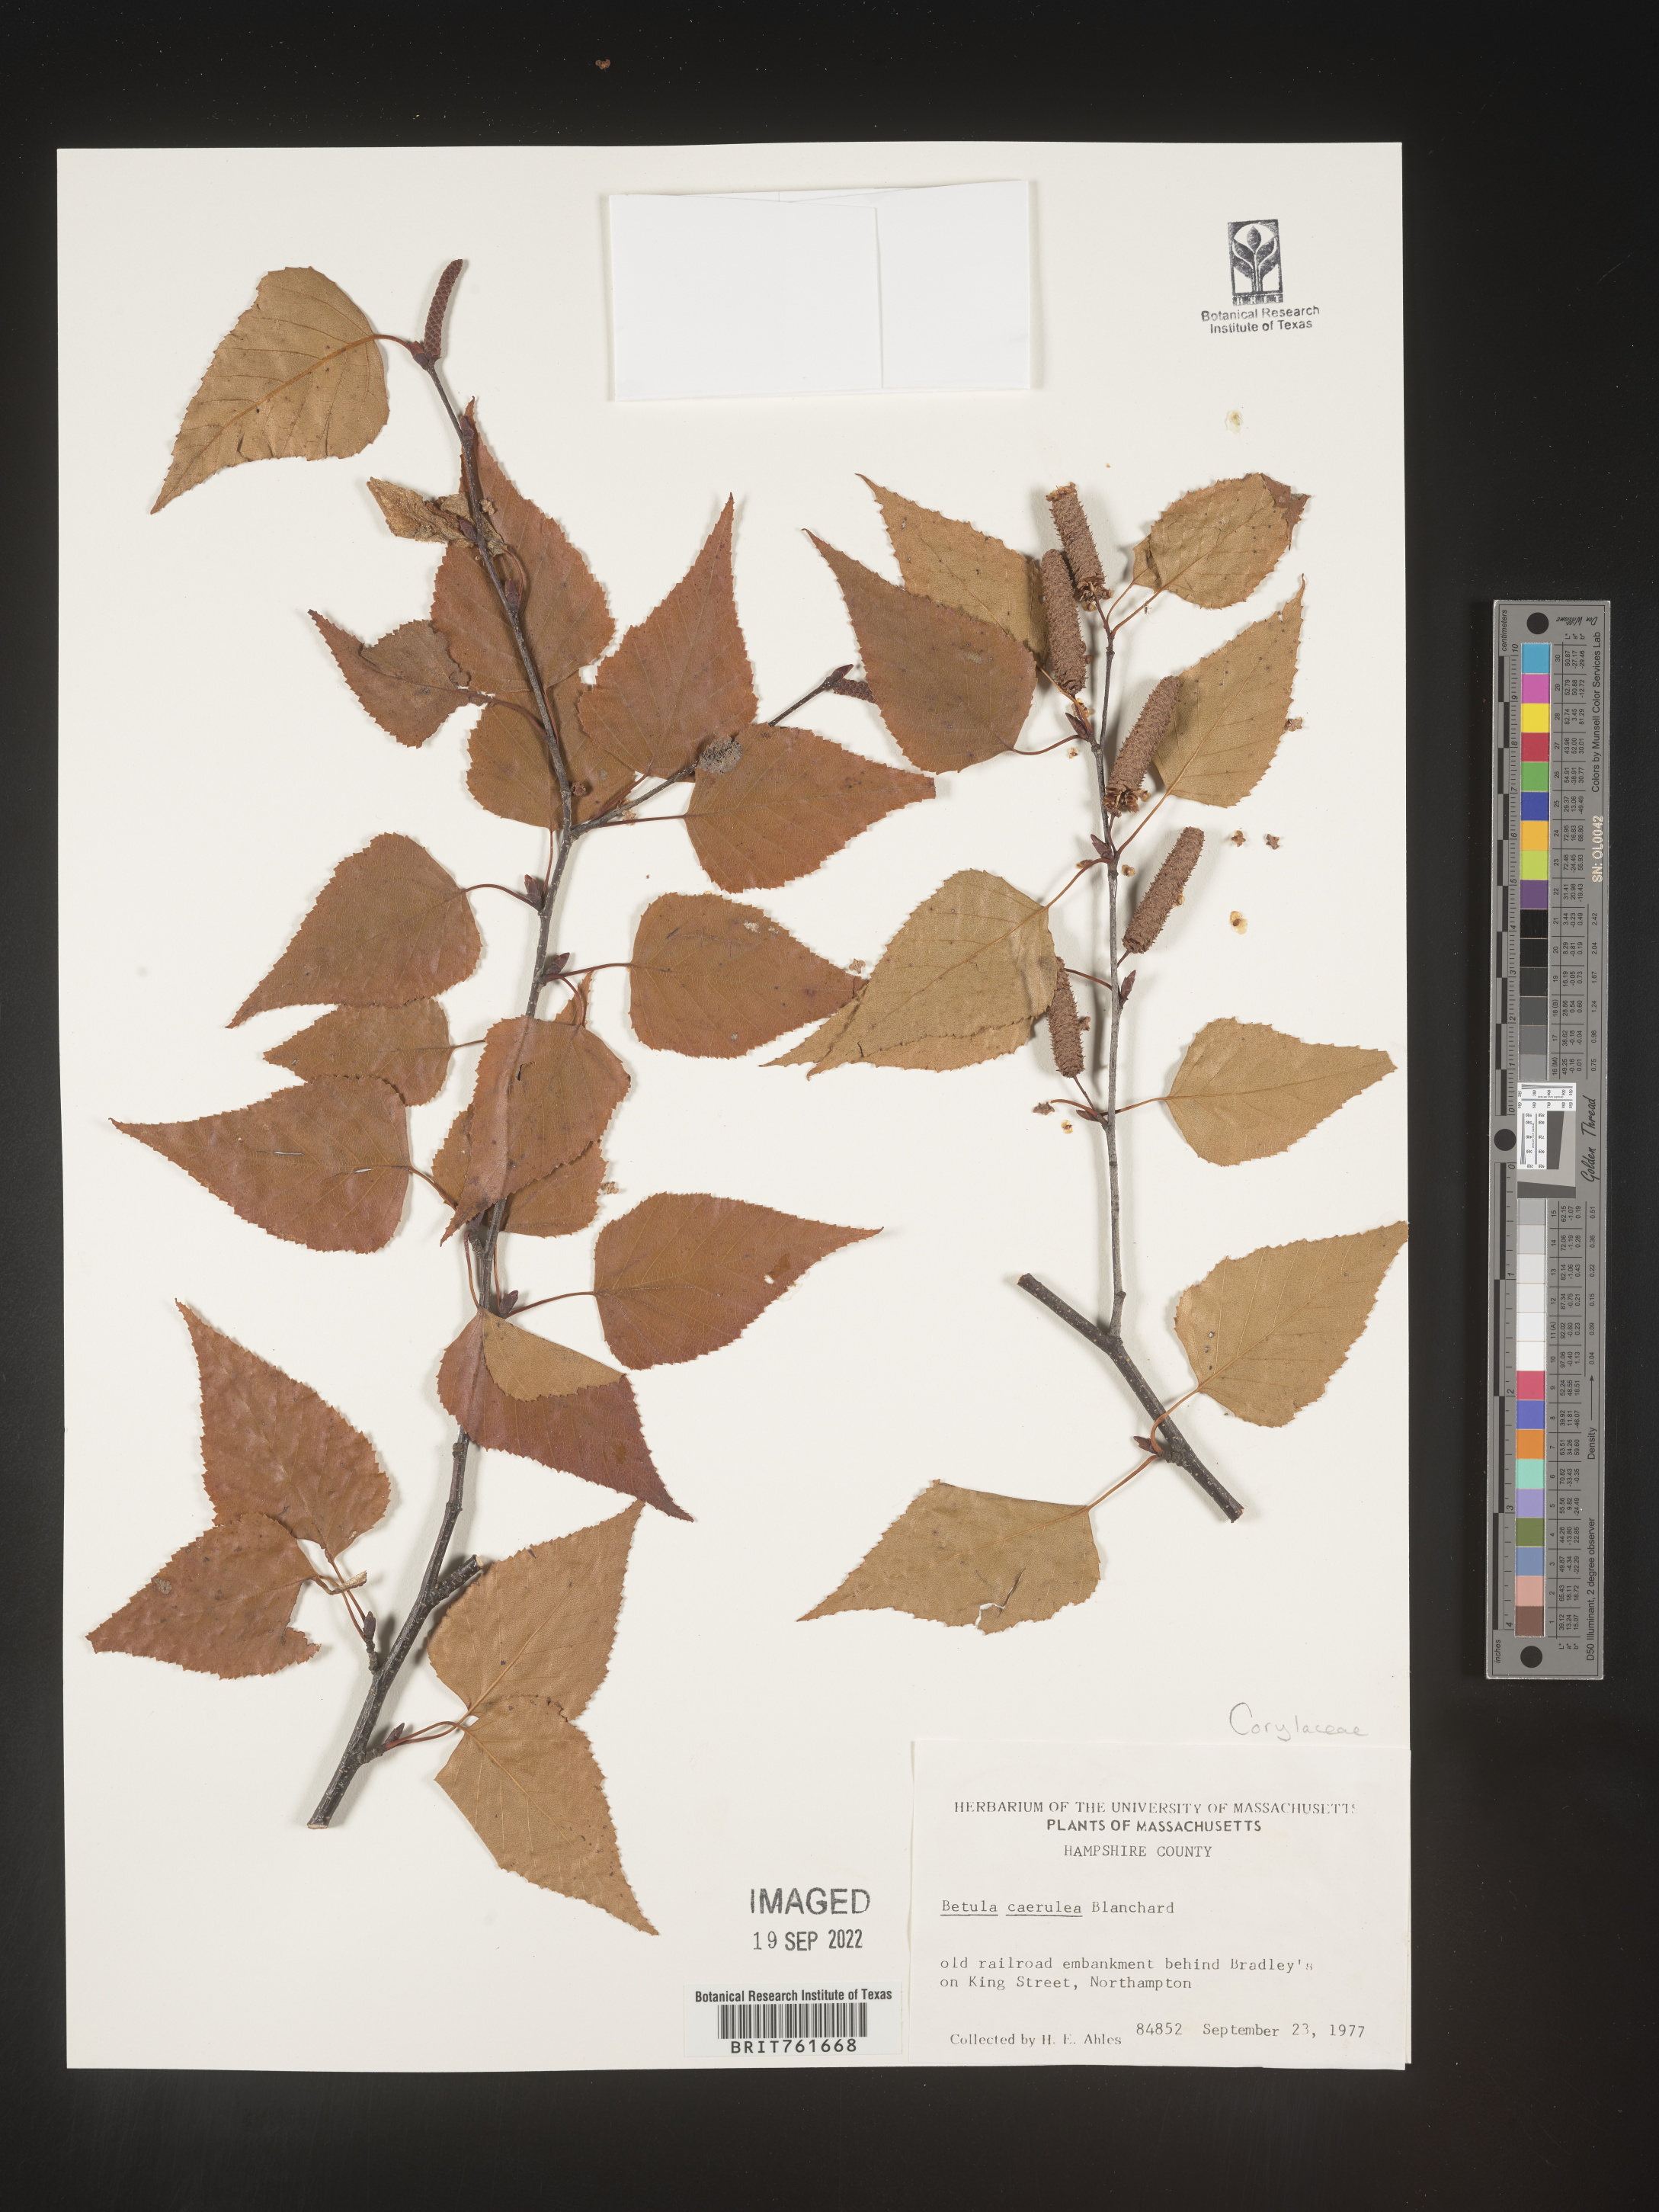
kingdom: Plantae
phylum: Tracheophyta
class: Magnoliopsida
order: Fagales
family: Betulaceae
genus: Betula
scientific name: Betula
